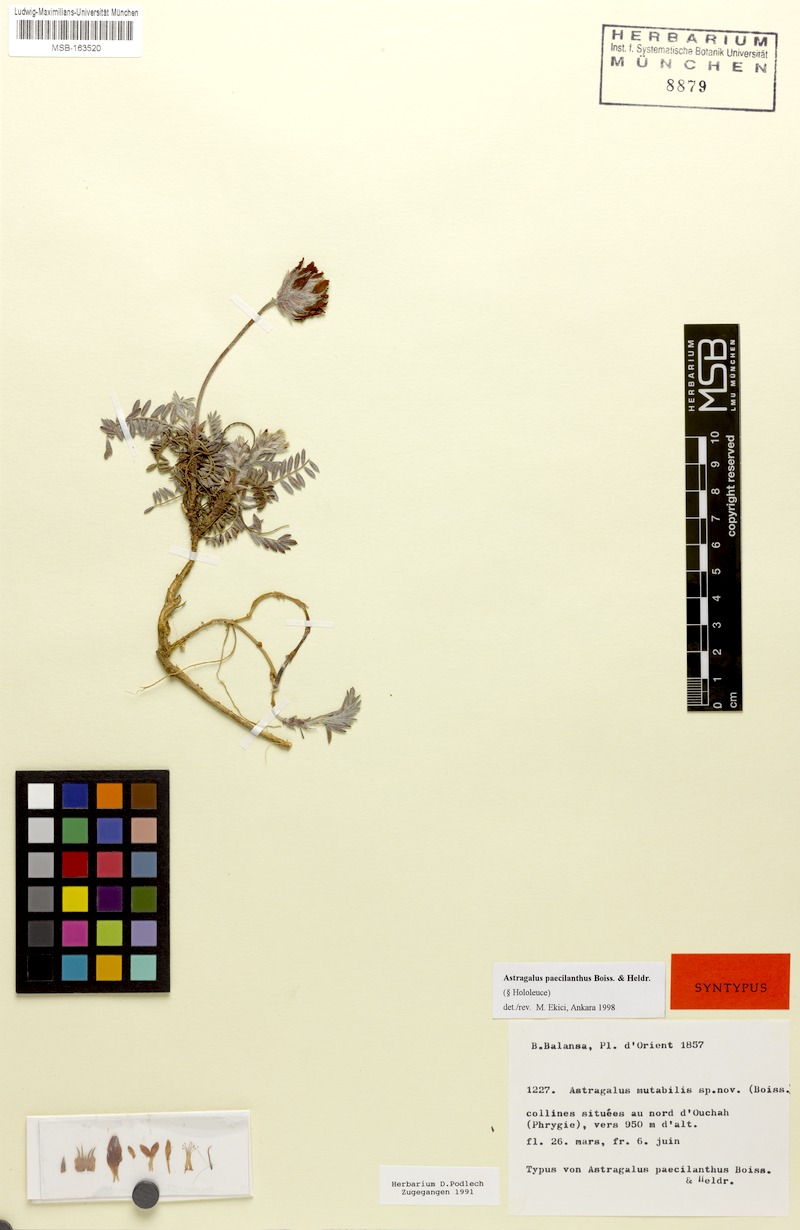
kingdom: Plantae
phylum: Tracheophyta
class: Magnoliopsida
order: Fabales
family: Fabaceae
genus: Astragalus
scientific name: Astragalus sibthorpianus
